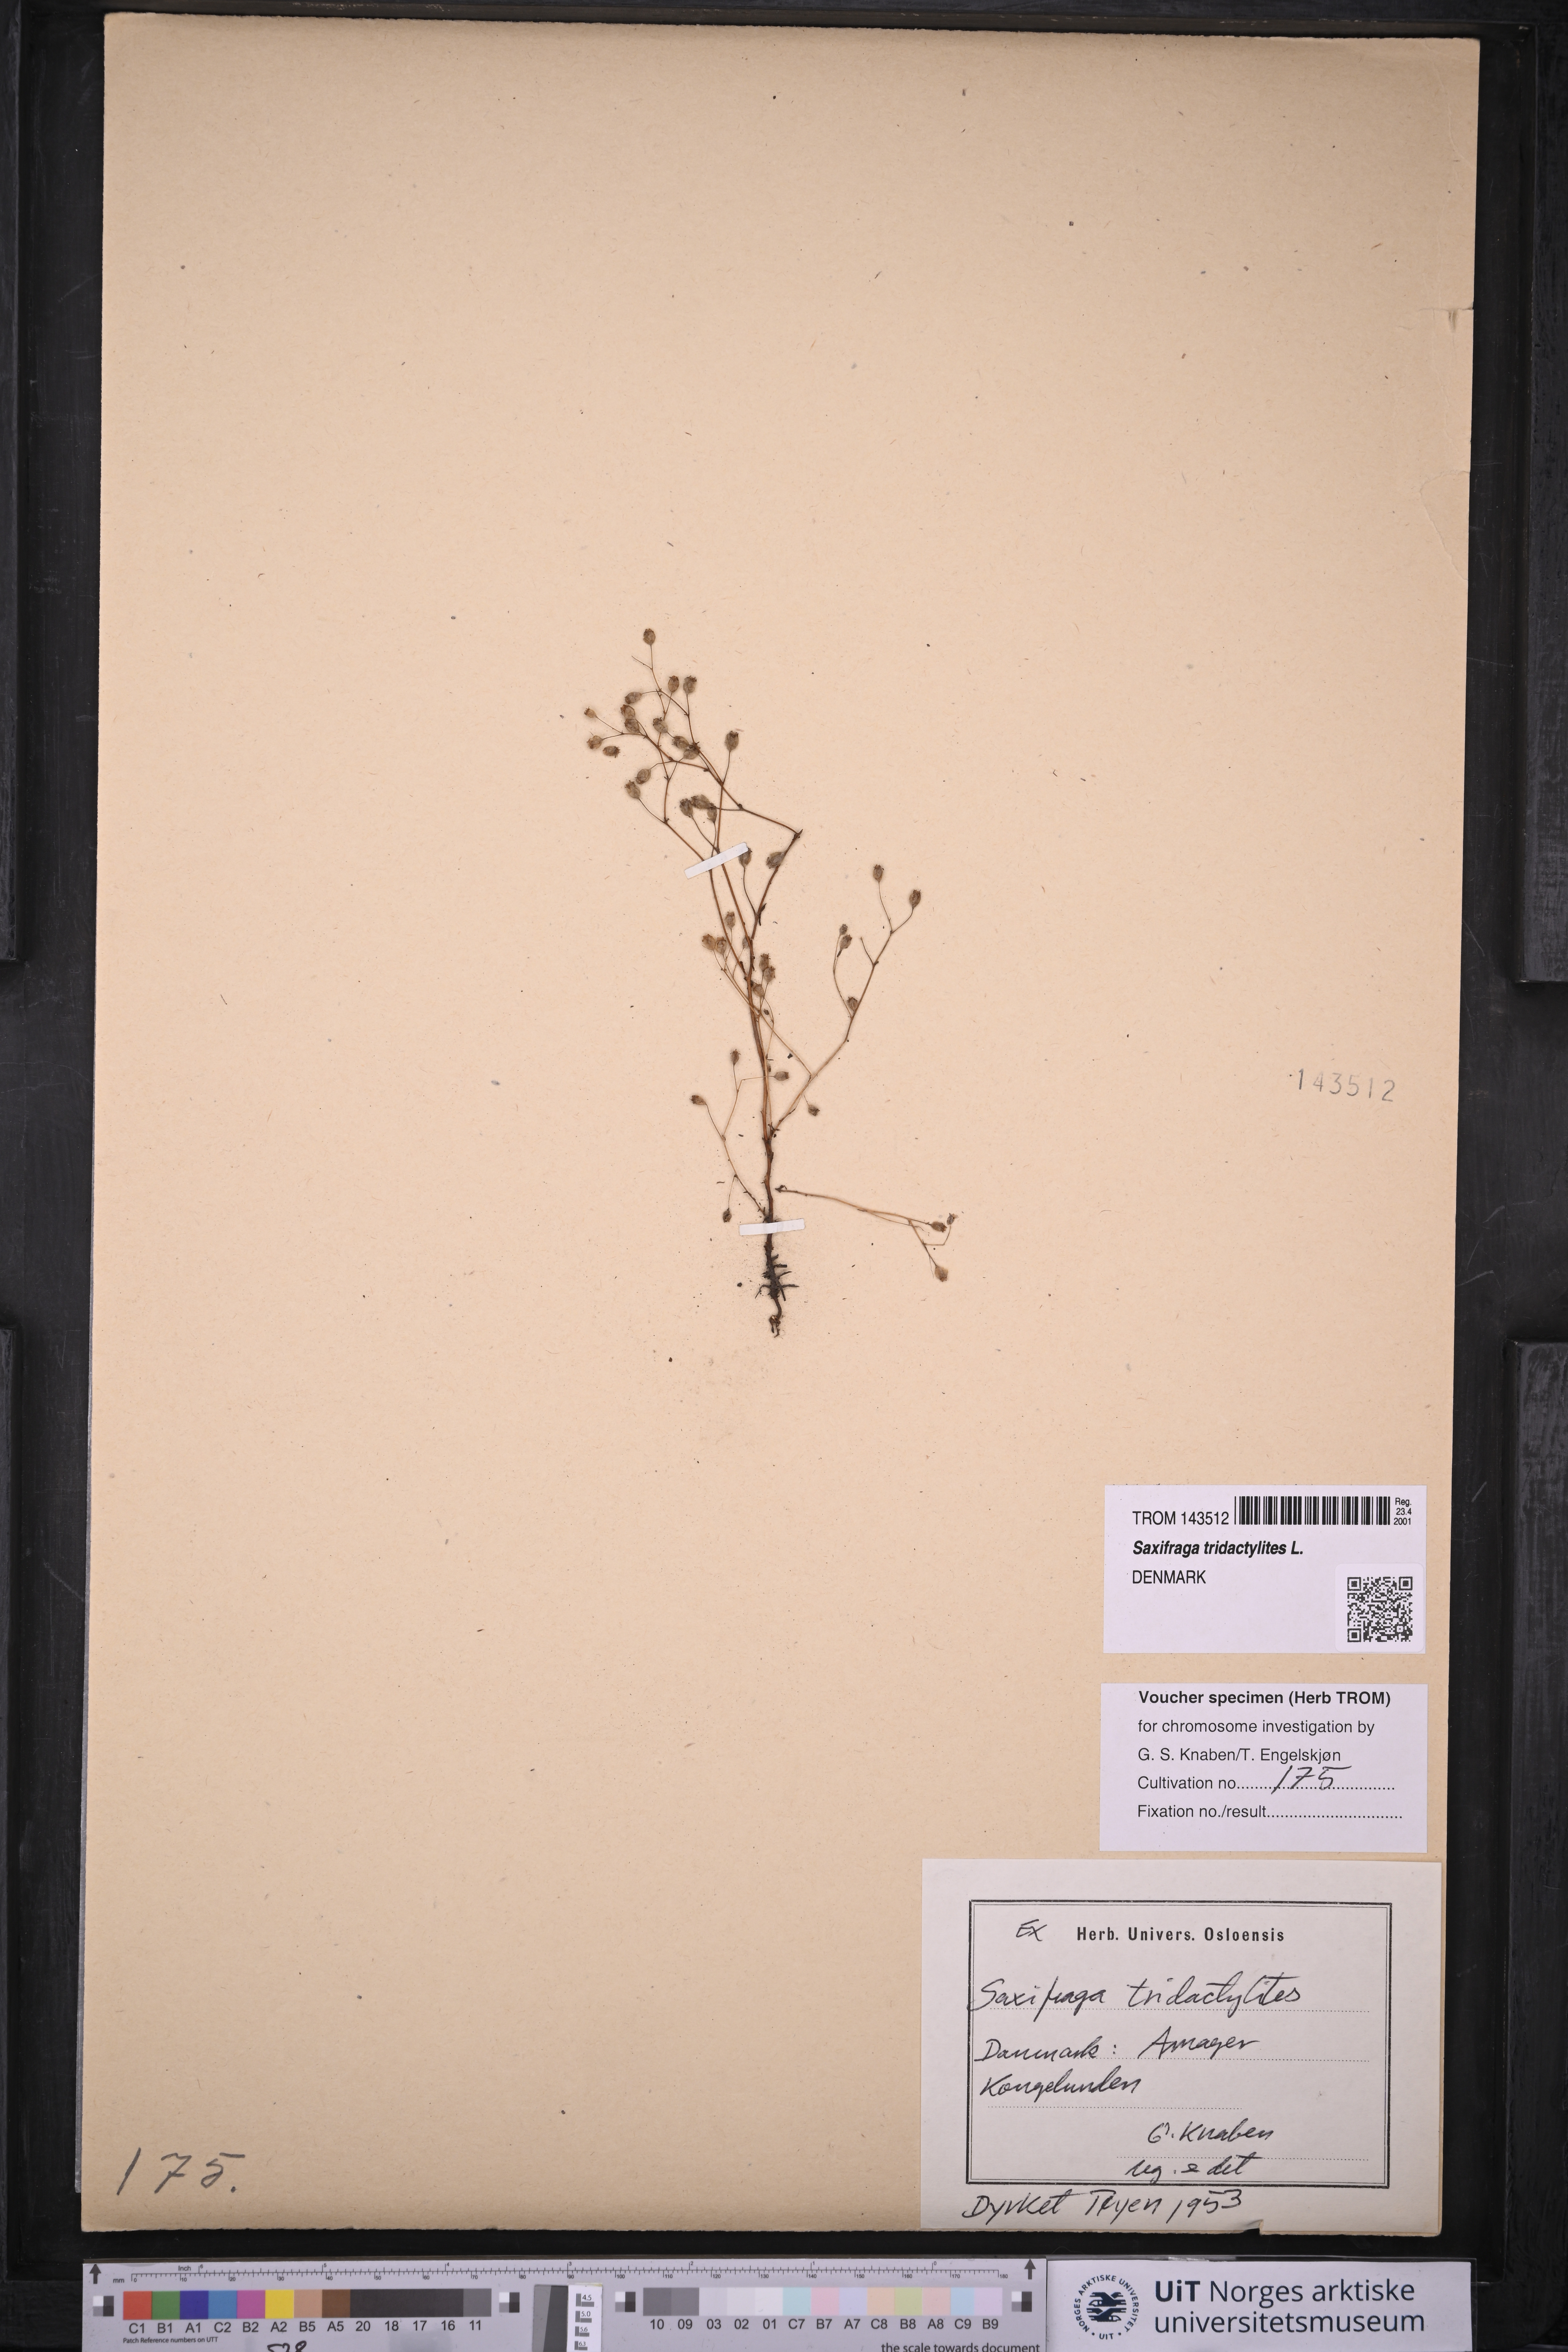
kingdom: Plantae
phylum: Tracheophyta
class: Magnoliopsida
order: Saxifragales
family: Saxifragaceae
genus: Saxifraga
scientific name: Saxifraga tridactylites
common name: Rue-leaved saxifrage
